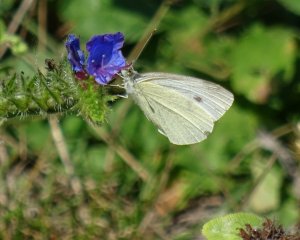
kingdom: Animalia
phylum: Arthropoda
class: Insecta
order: Lepidoptera
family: Pieridae
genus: Pieris
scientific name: Pieris rapae
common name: Cabbage White
